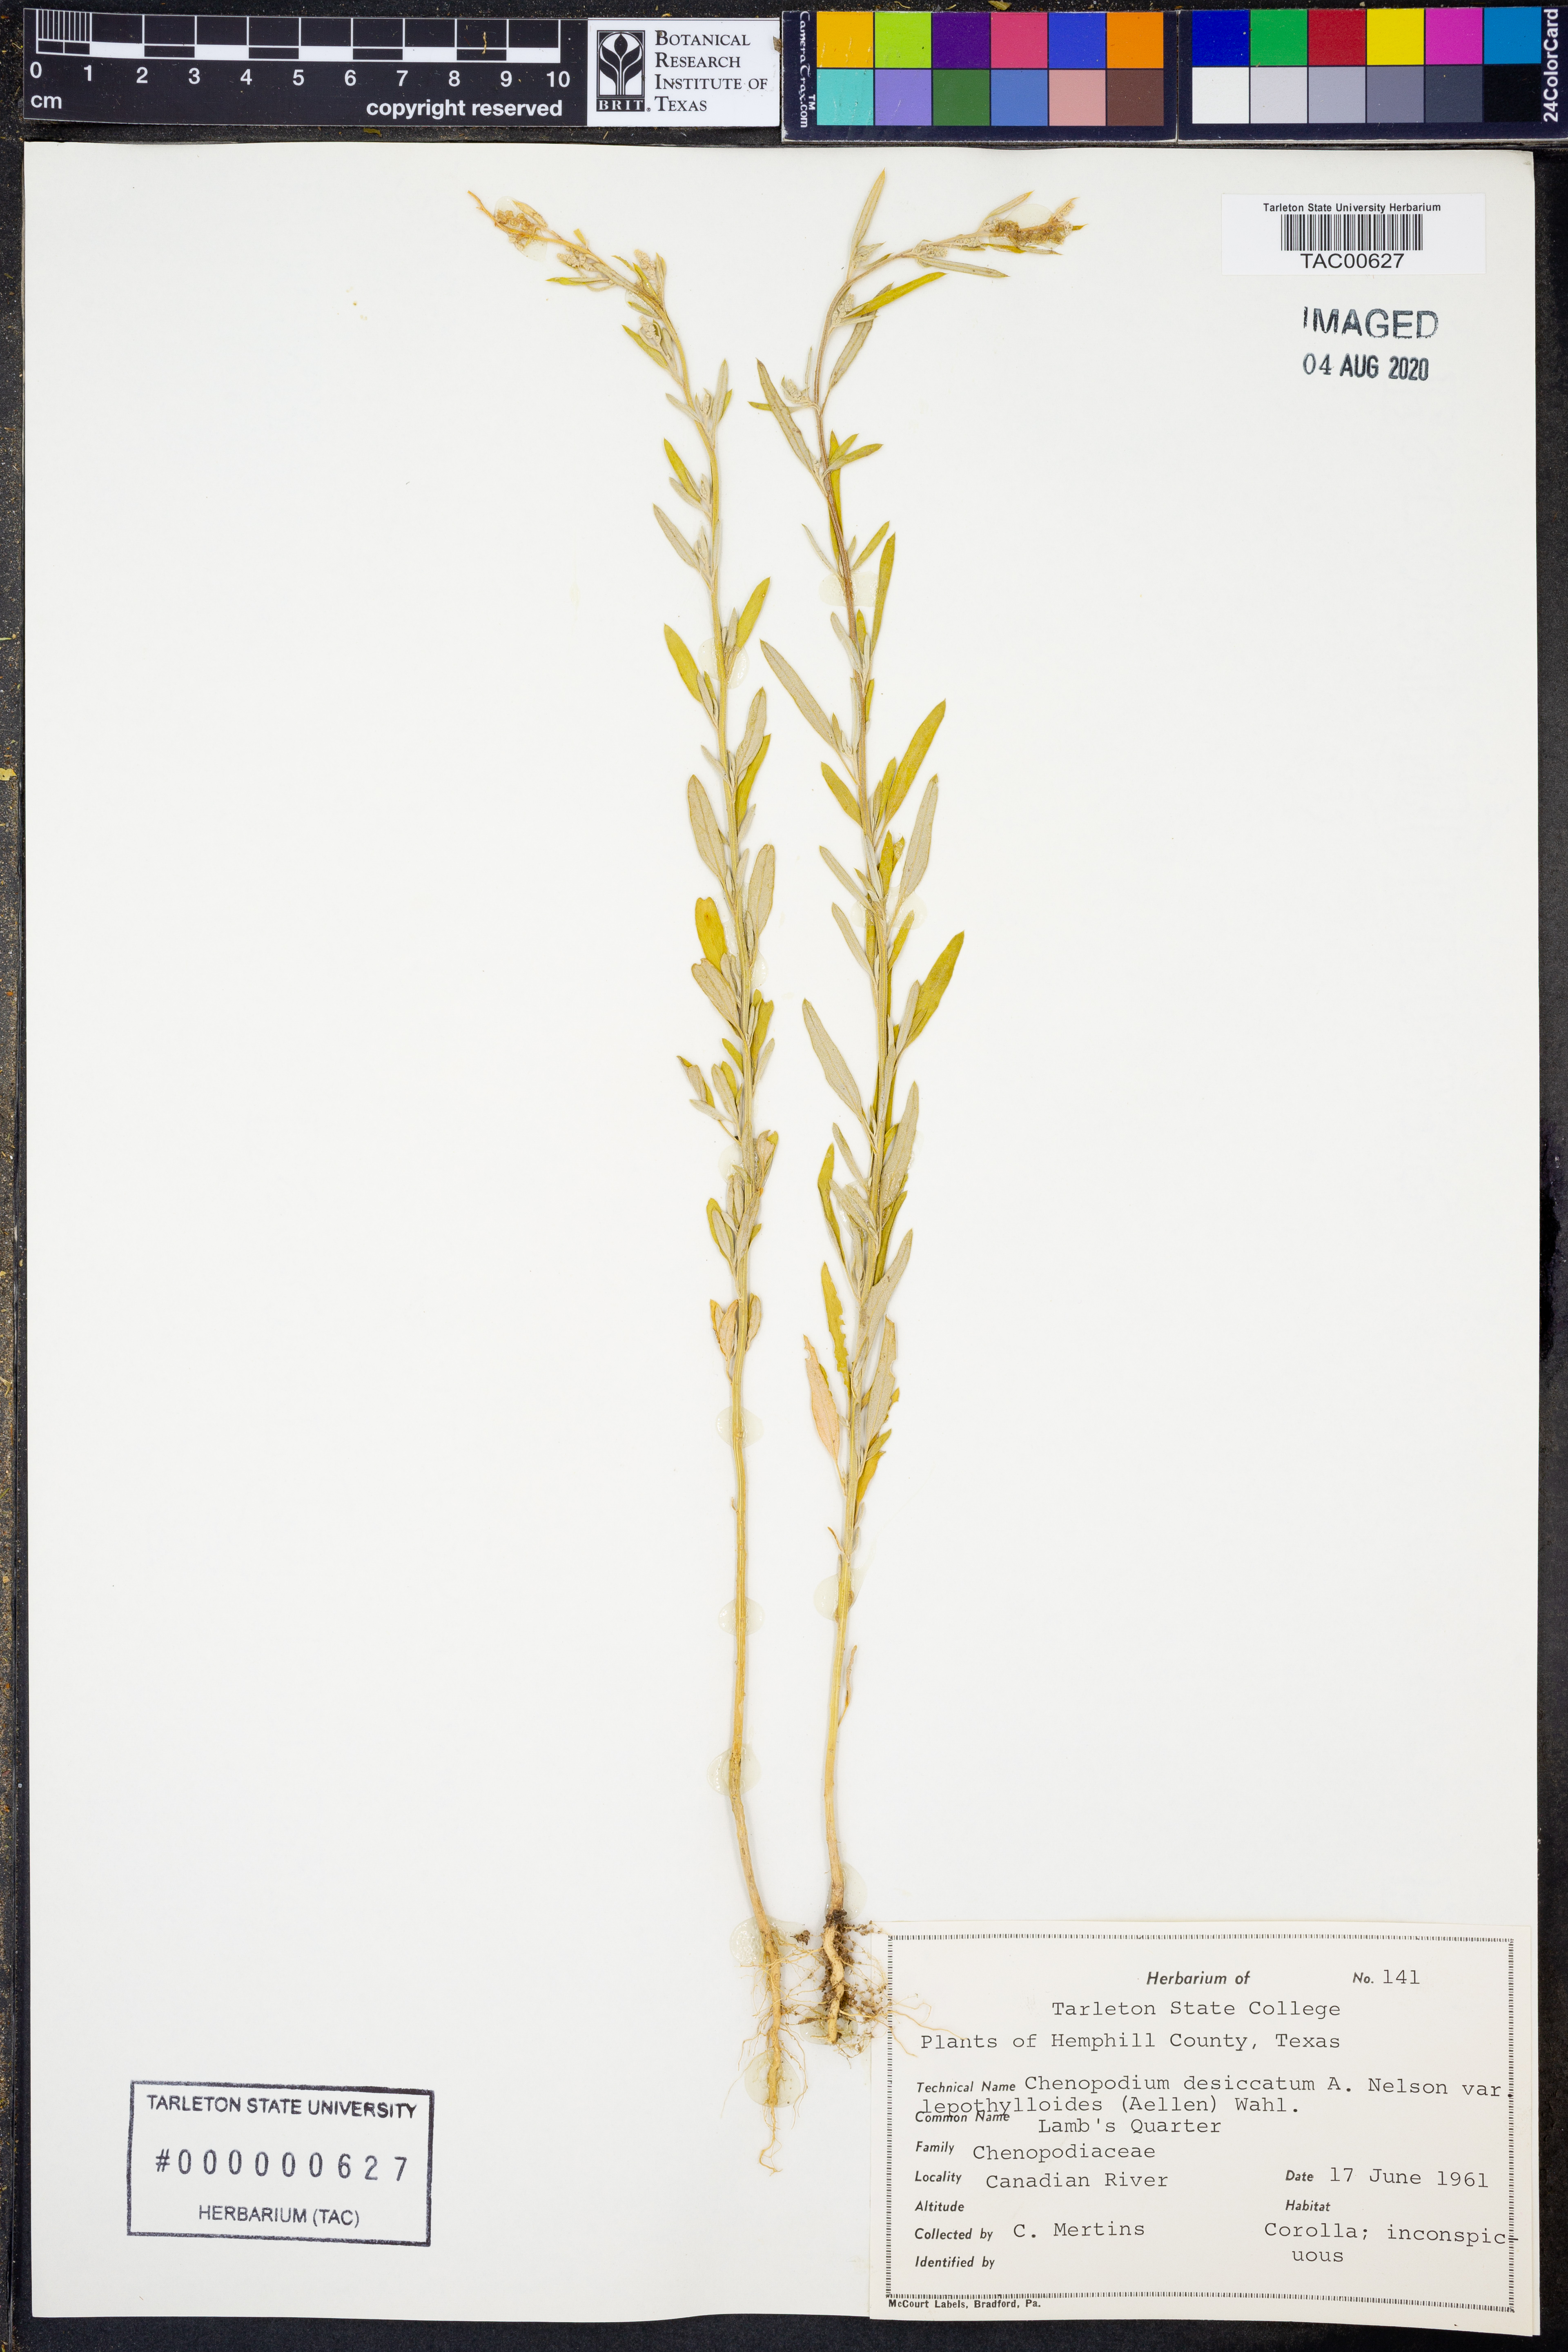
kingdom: Plantae
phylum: Tracheophyta
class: Magnoliopsida
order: Caryophyllales
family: Amaranthaceae
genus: Chenopodium
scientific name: Chenopodium pratericola
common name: Desert goosefoot
